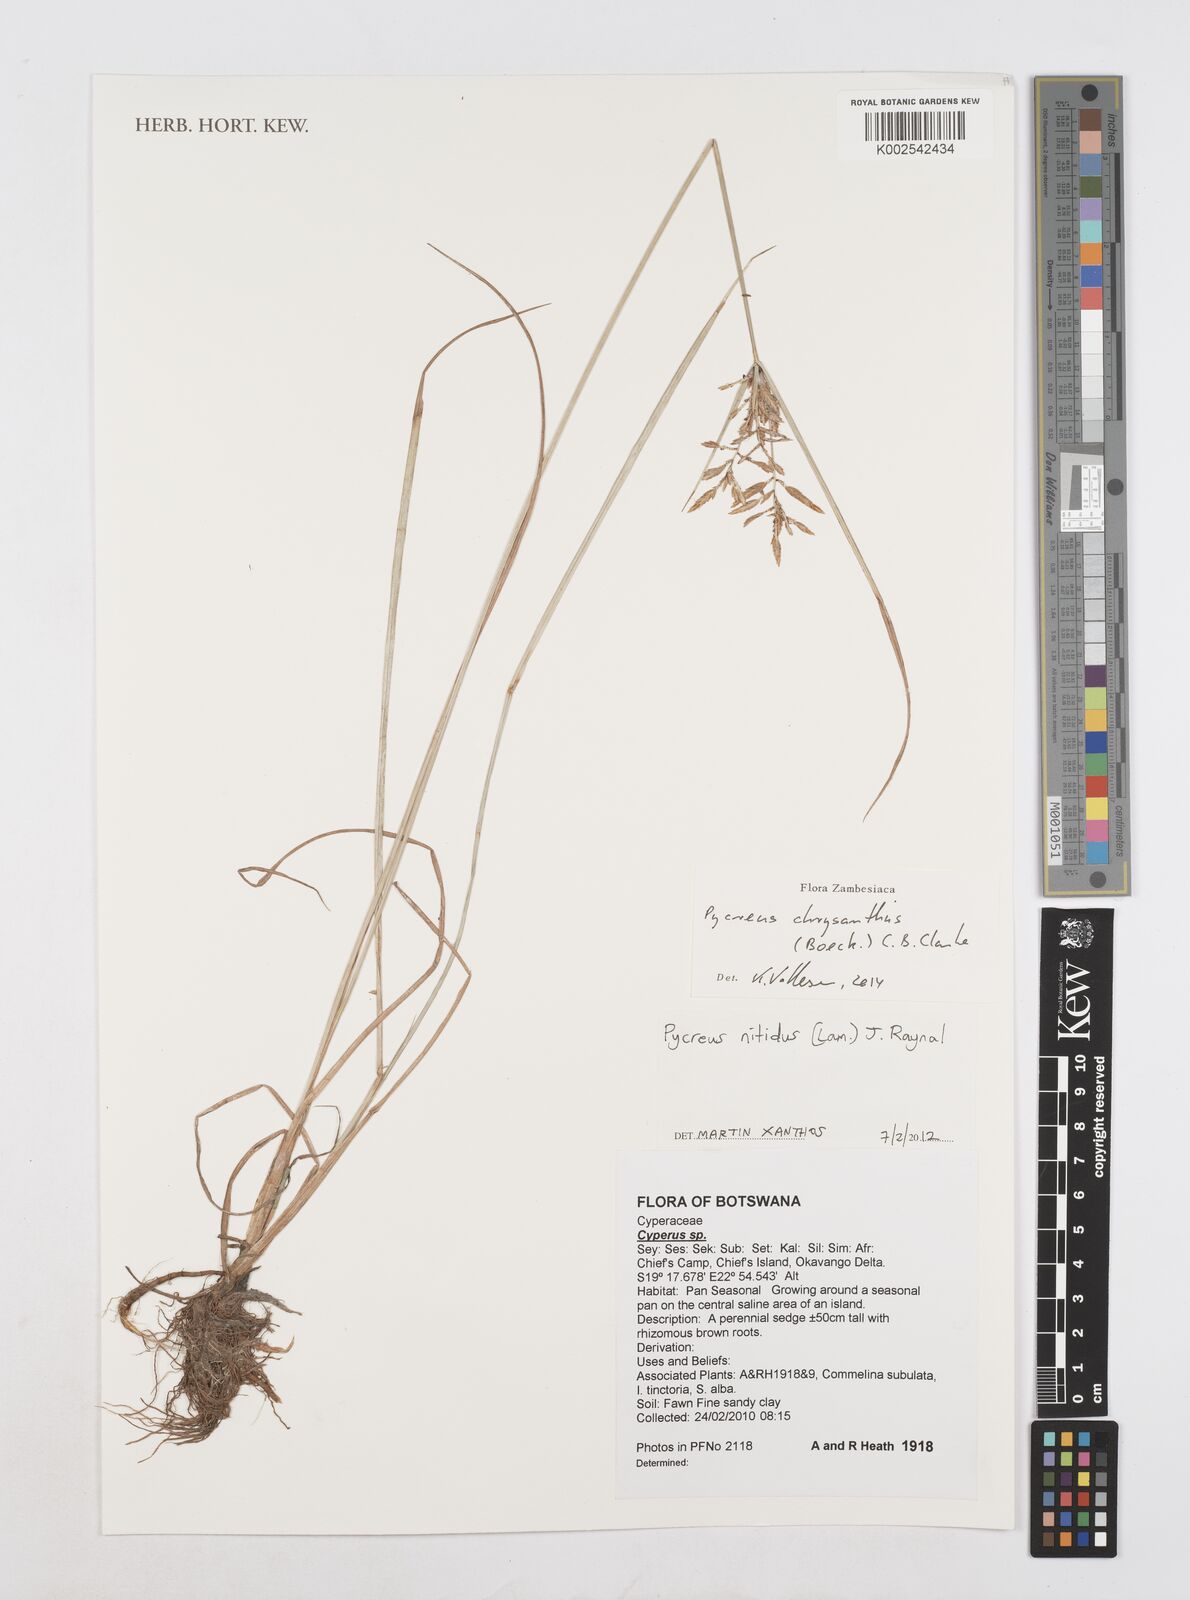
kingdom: Plantae
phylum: Tracheophyta
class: Liliopsida
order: Poales
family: Cyperaceae
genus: Cyperus
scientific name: Cyperus chrysanthus
